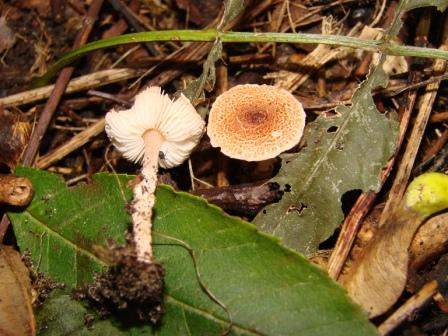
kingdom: Fungi
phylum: Basidiomycota
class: Agaricomycetes
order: Agaricales
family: Agaricaceae
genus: Lepiota
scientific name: Lepiota subincarnata
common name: kødfarvet parasolhat
